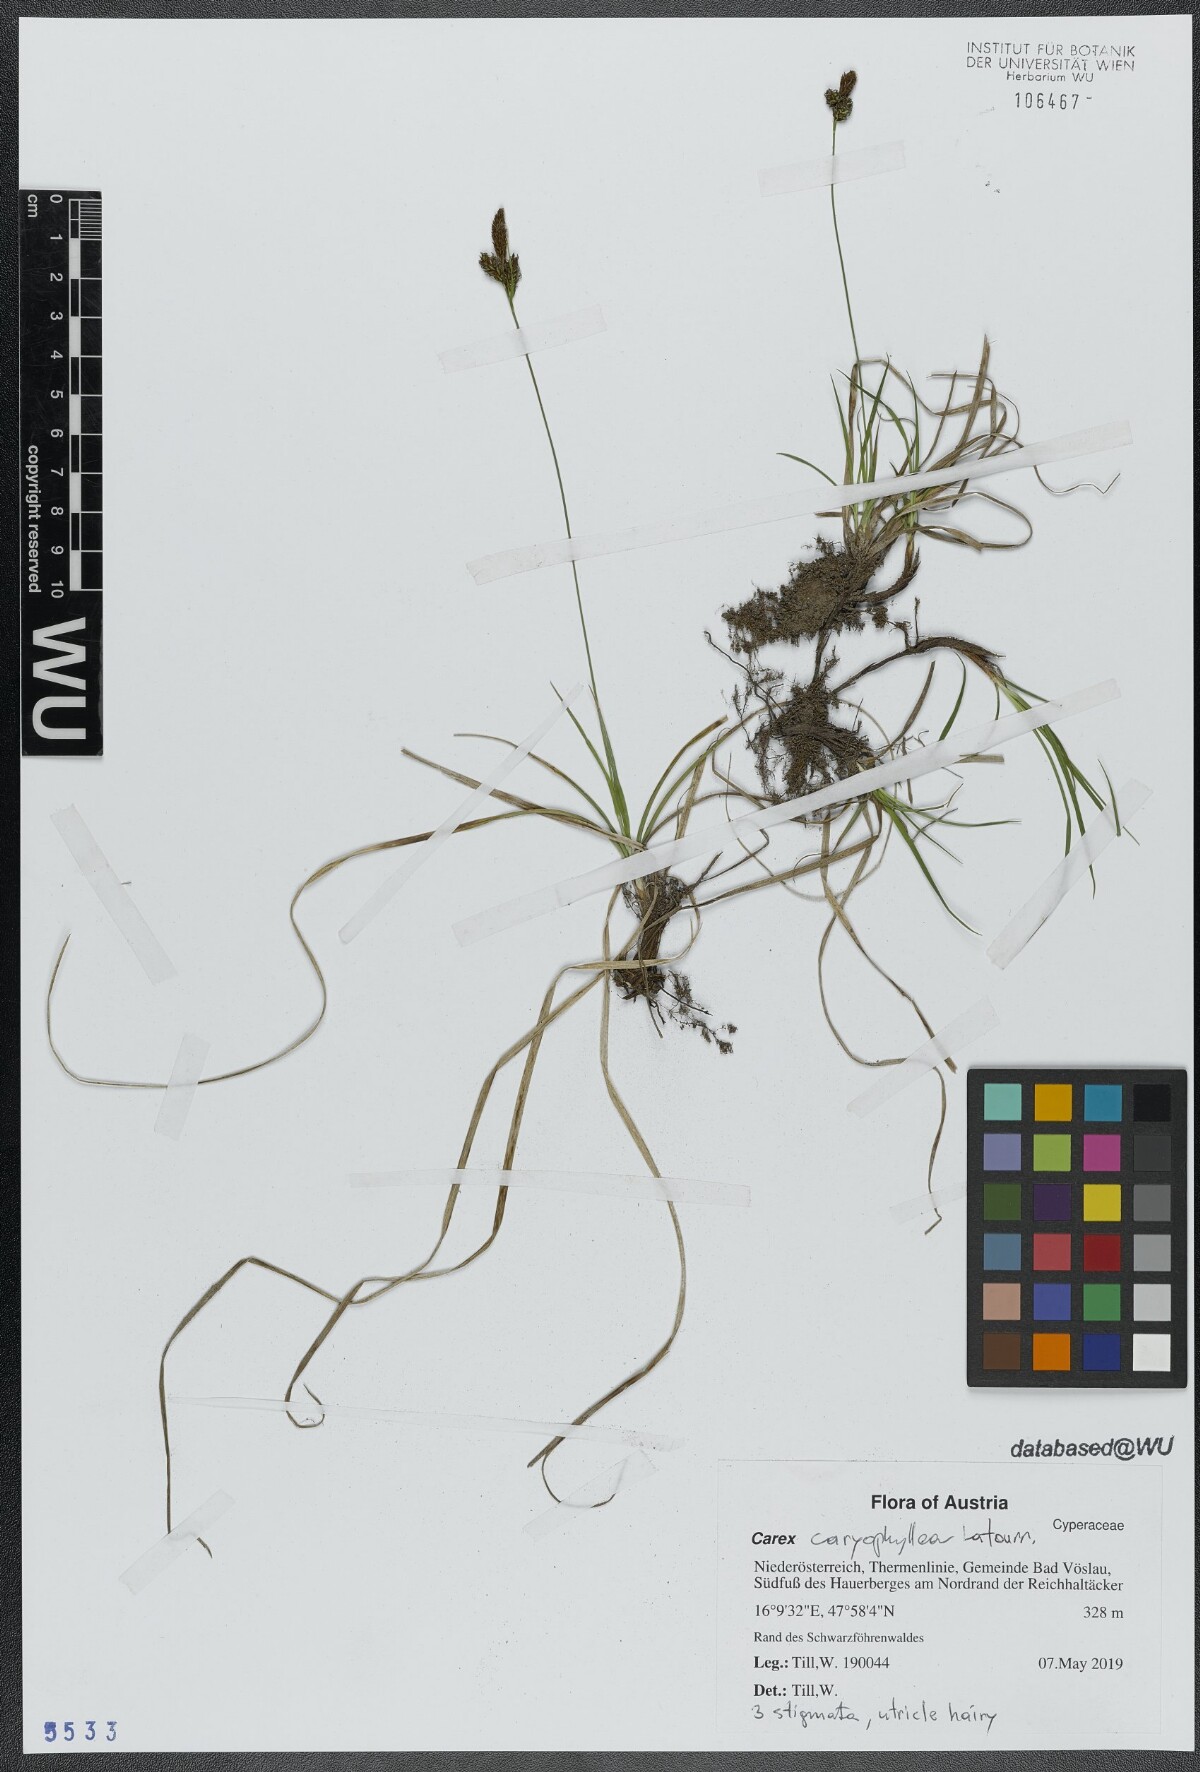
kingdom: Plantae
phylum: Tracheophyta
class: Liliopsida
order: Poales
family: Cyperaceae
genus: Carex
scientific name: Carex caryophyllea
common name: Spring sedge
